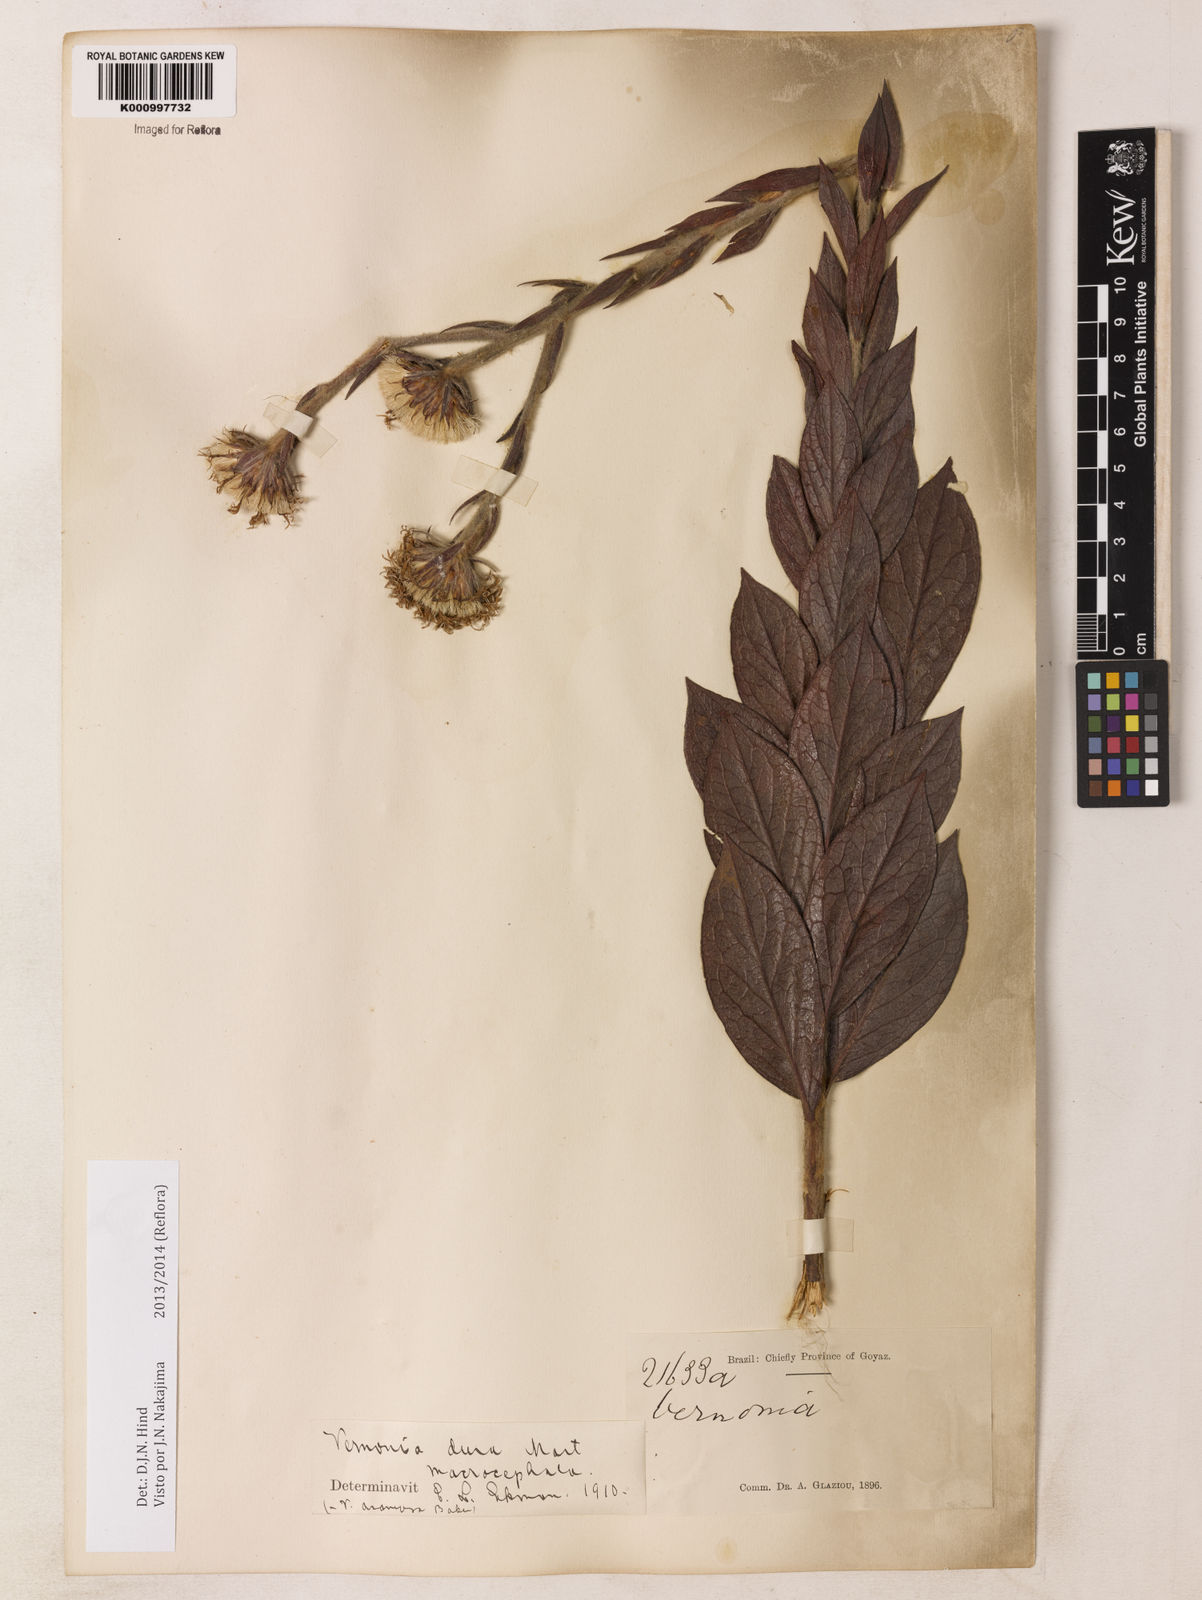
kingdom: Plantae
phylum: Tracheophyta
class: Magnoliopsida
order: Asterales
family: Asteraceae
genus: Lessingianthus
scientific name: Lessingianthus durus
